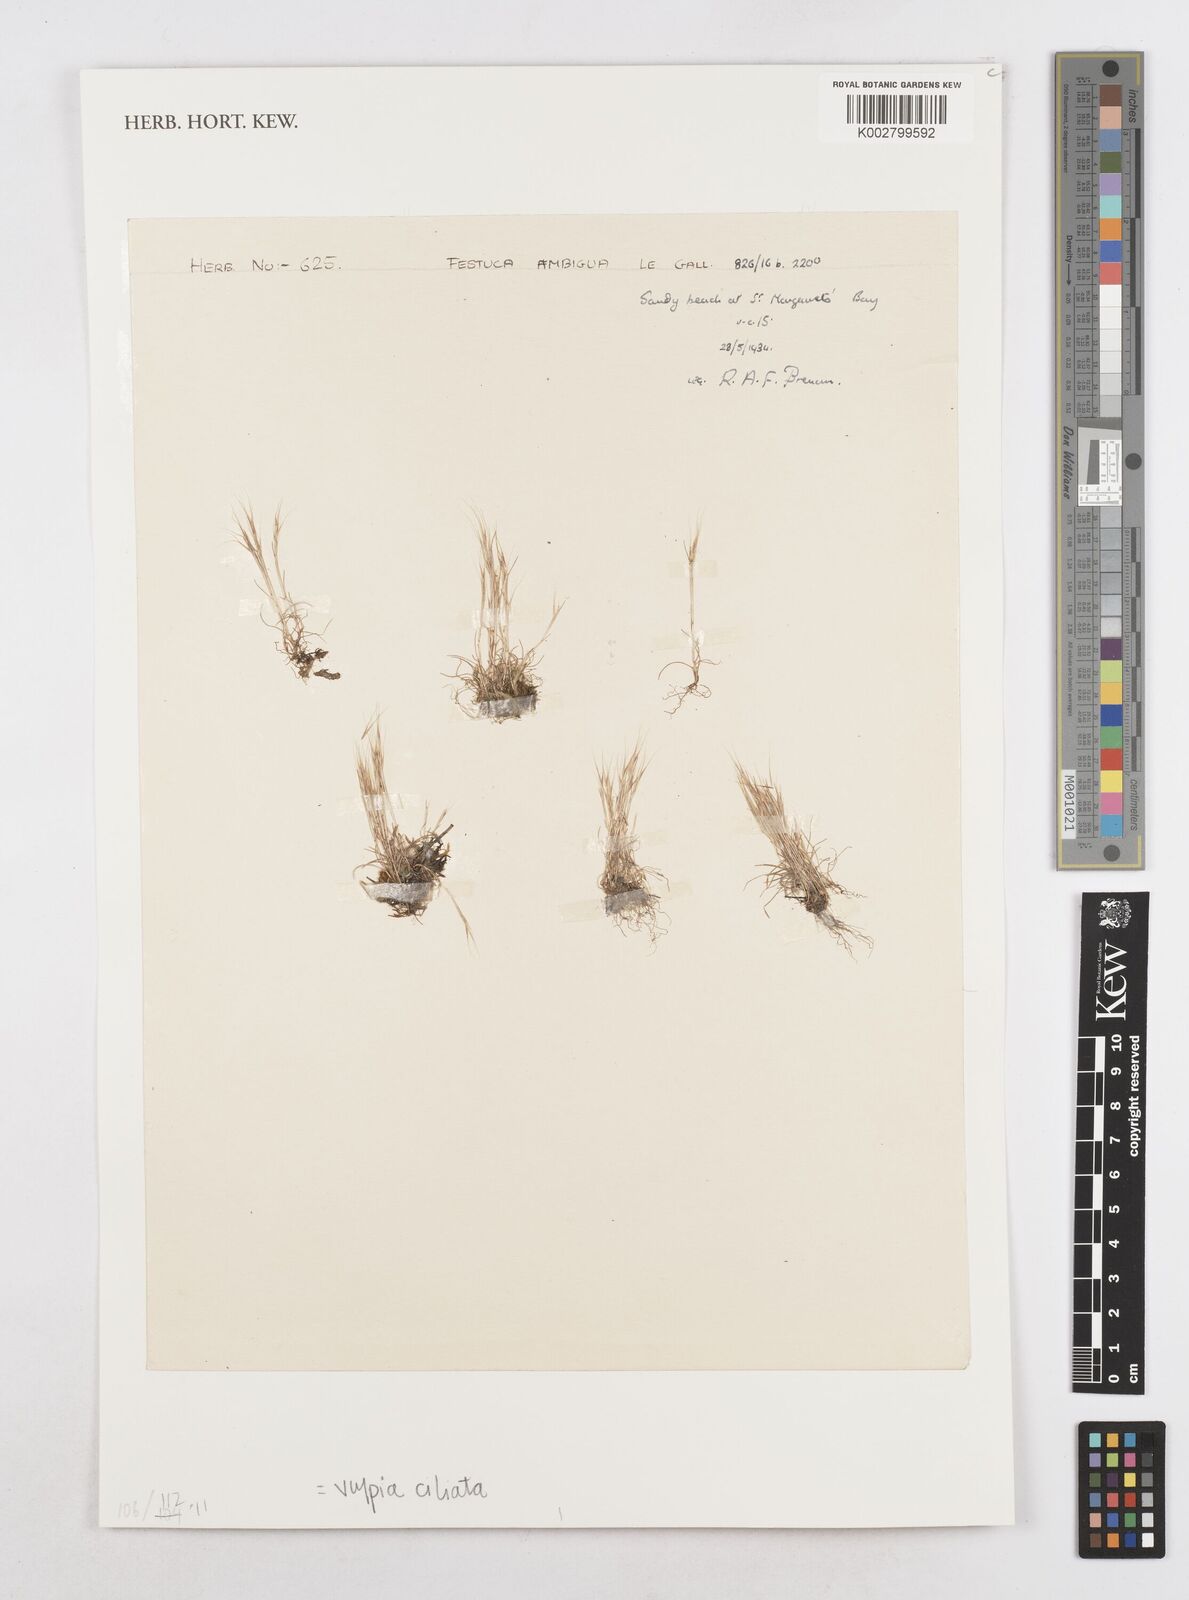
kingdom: Plantae
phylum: Tracheophyta
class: Liliopsida
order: Poales
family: Poaceae
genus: Festuca
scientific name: Festuca ambigua
